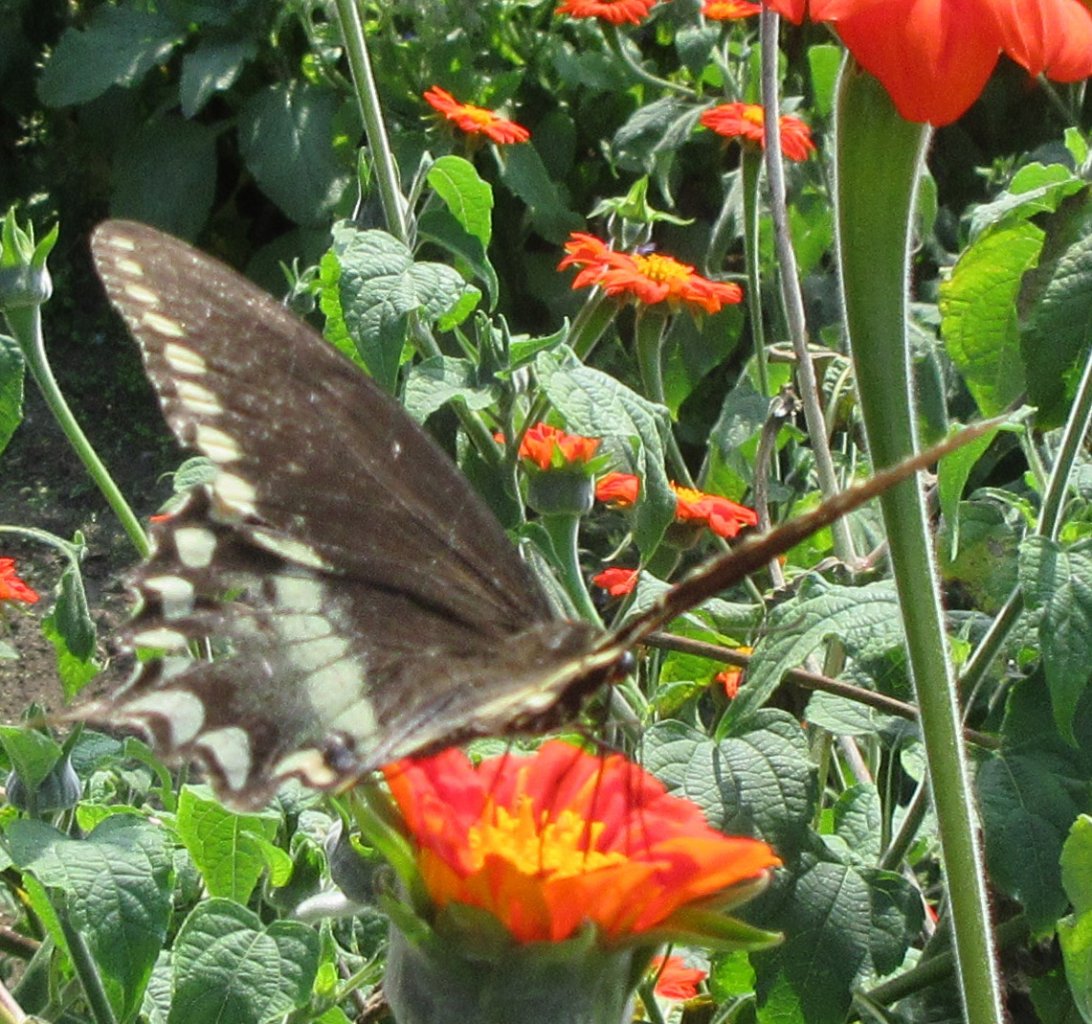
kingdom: Animalia
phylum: Arthropoda
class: Insecta
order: Lepidoptera
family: Papilionidae
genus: Pterourus
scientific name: Pterourus troilus
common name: Spicebush Swallowtail
